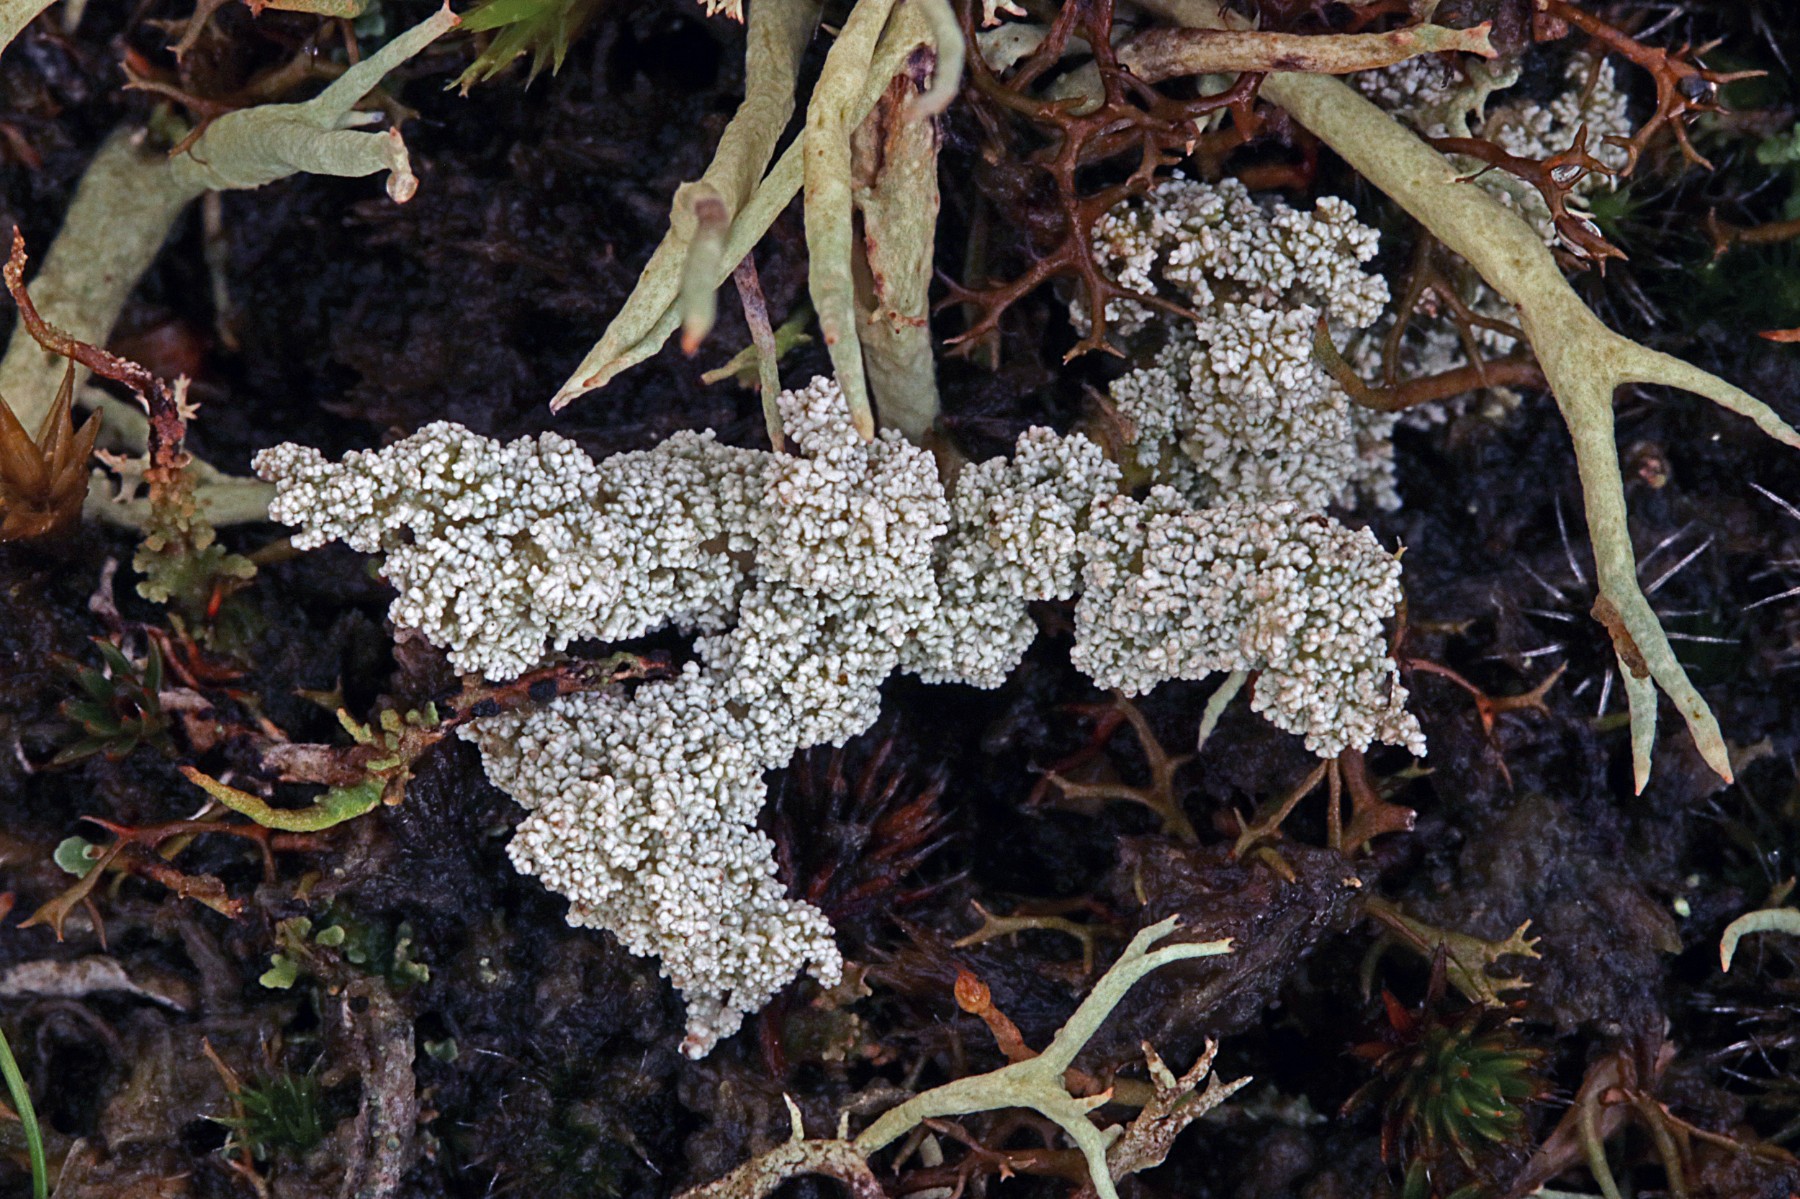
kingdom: Fungi
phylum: Ascomycota
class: Lecanoromycetes
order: Lecanorales
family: Stereocaulaceae
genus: Stereocaulon
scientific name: Stereocaulon saxatile
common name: klit-korallav
